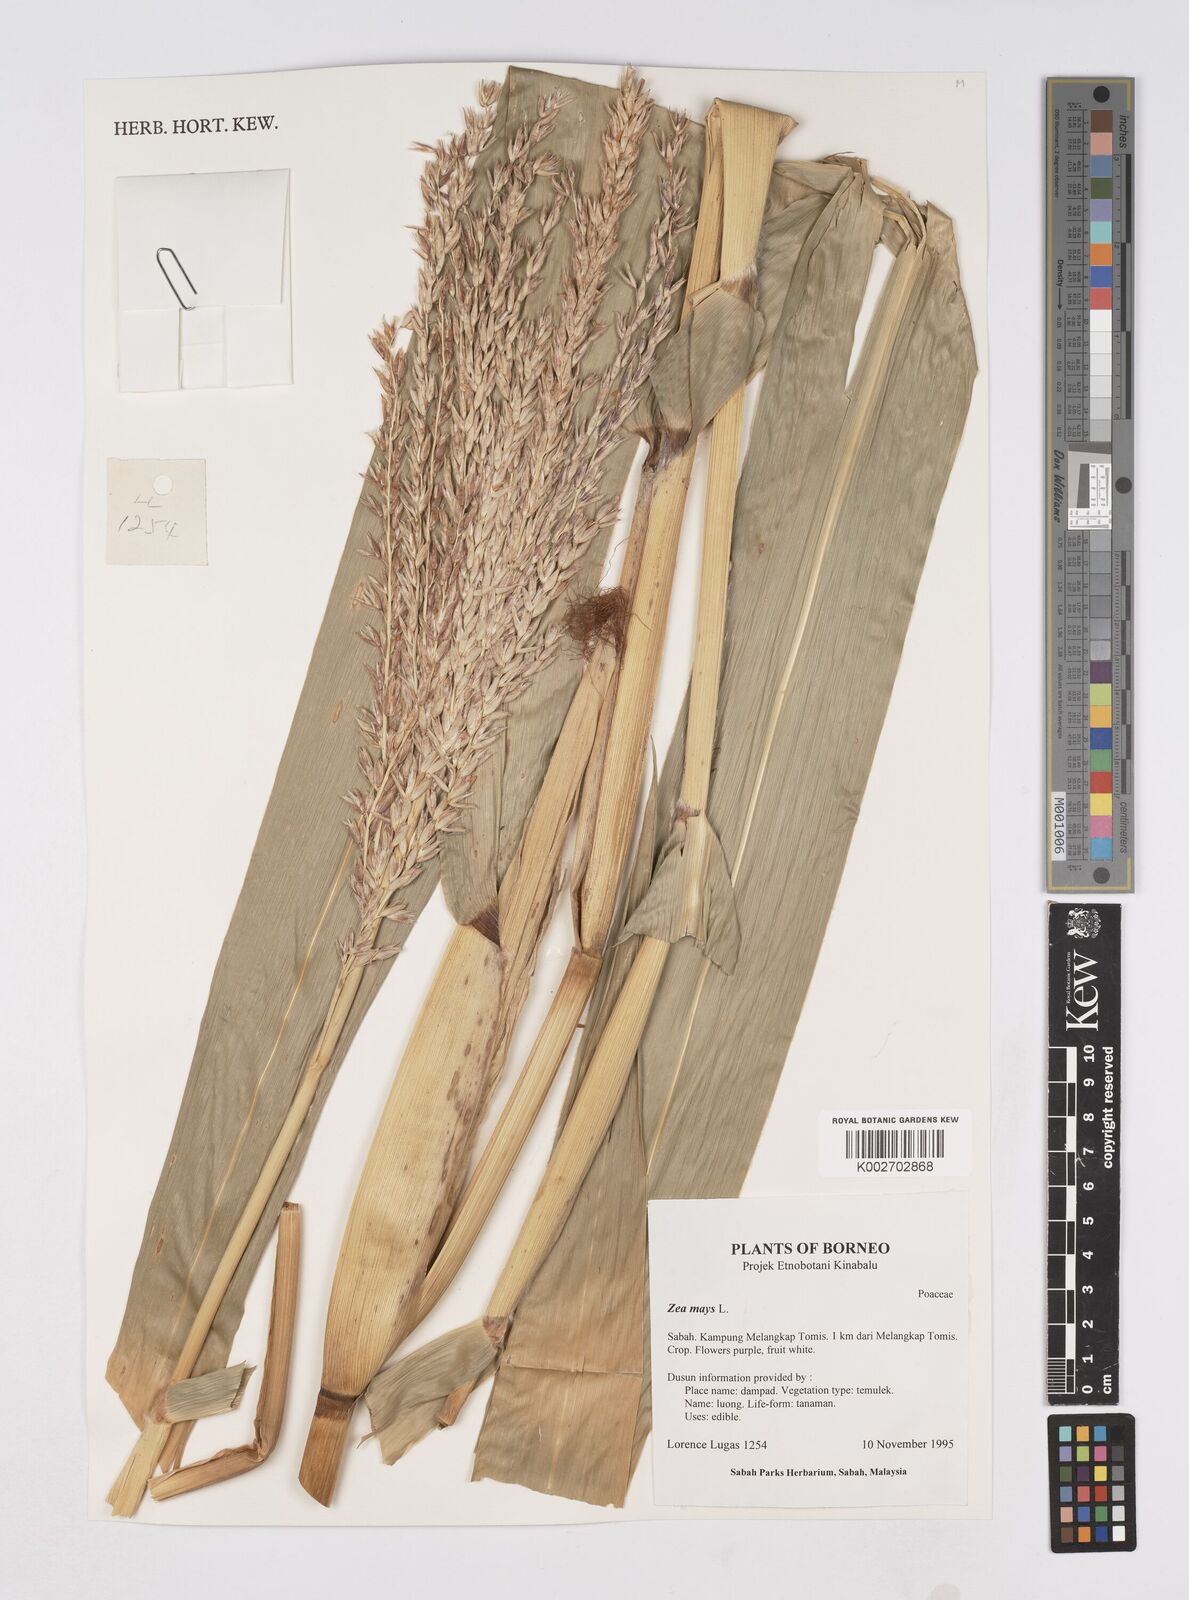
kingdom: Plantae
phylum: Tracheophyta
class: Liliopsida
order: Poales
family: Poaceae
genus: Zea
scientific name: Zea mays
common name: Maize
